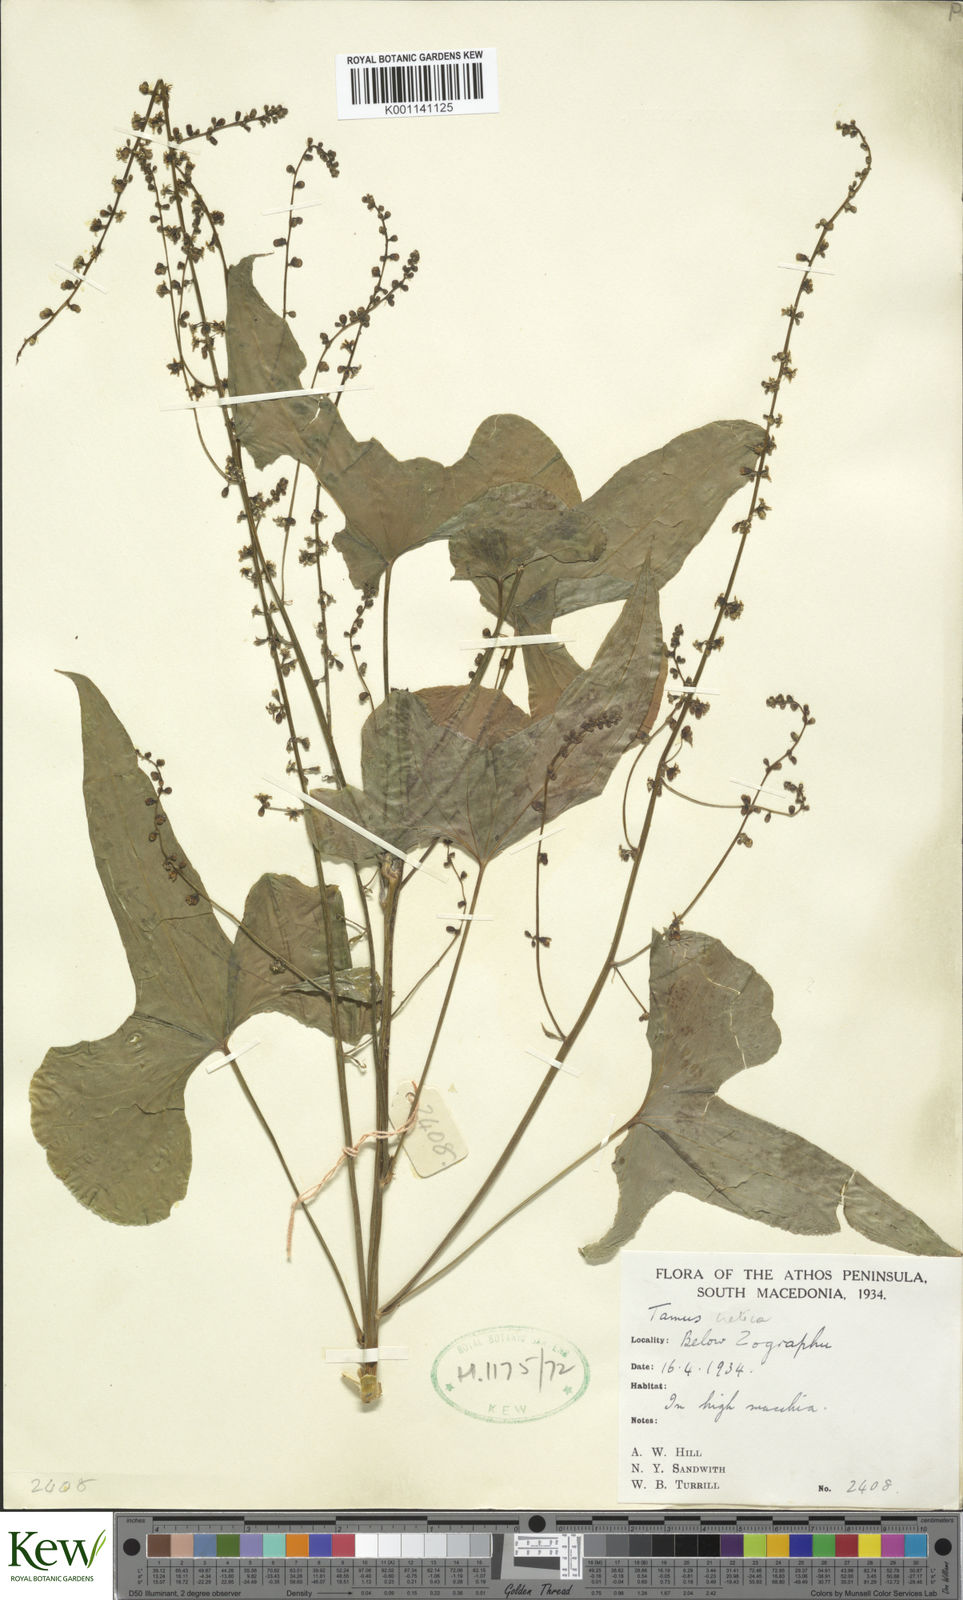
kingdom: Plantae
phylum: Tracheophyta
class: Liliopsida
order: Dioscoreales
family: Dioscoreaceae
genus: Dioscorea
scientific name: Dioscorea communis
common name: Black-bindweed
